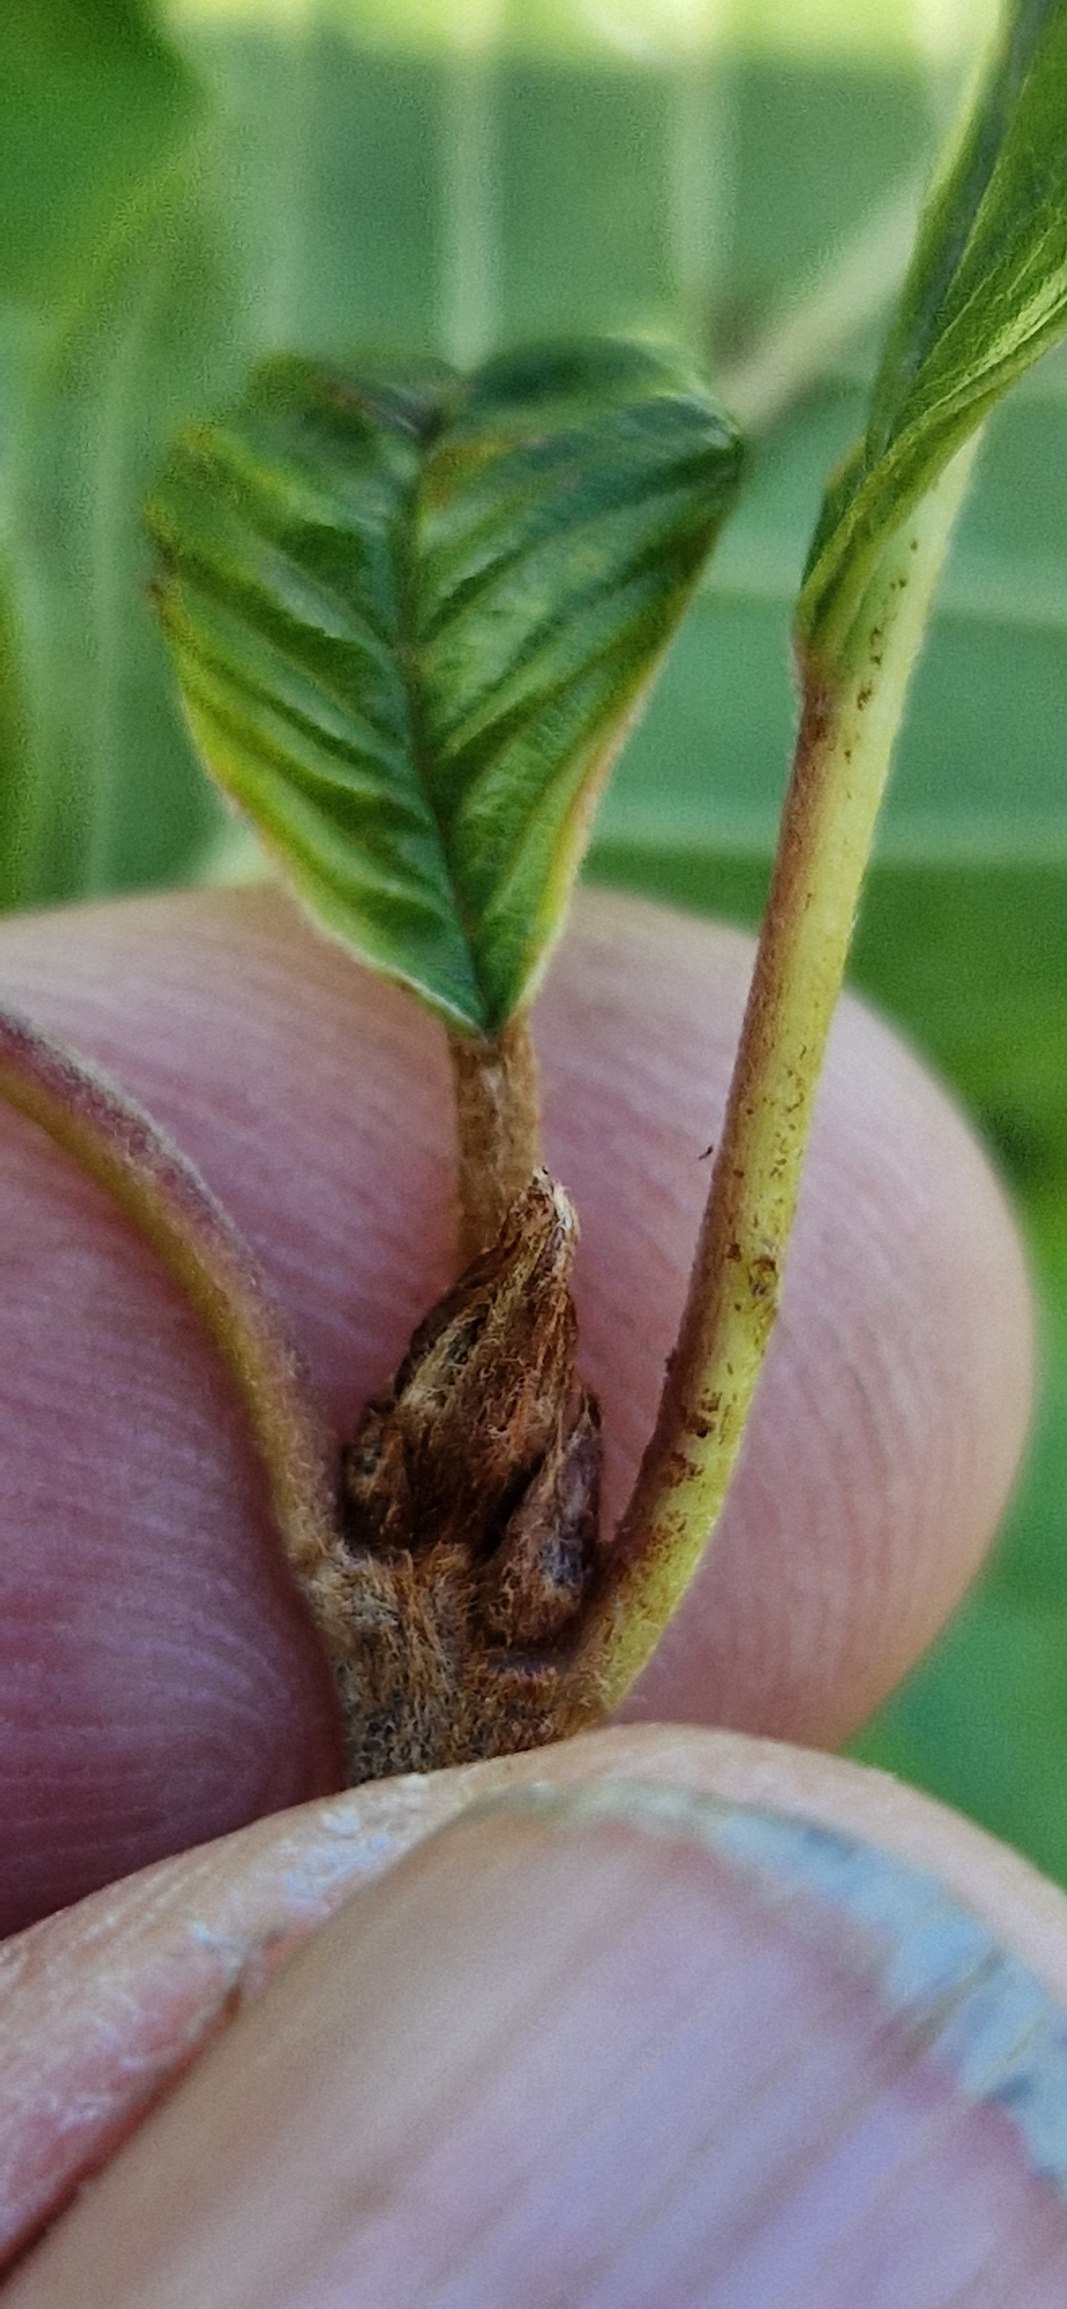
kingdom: Plantae
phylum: Tracheophyta
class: Magnoliopsida
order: Rosales
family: Rhamnaceae
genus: Frangula
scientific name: Frangula alnus
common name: Tørst
